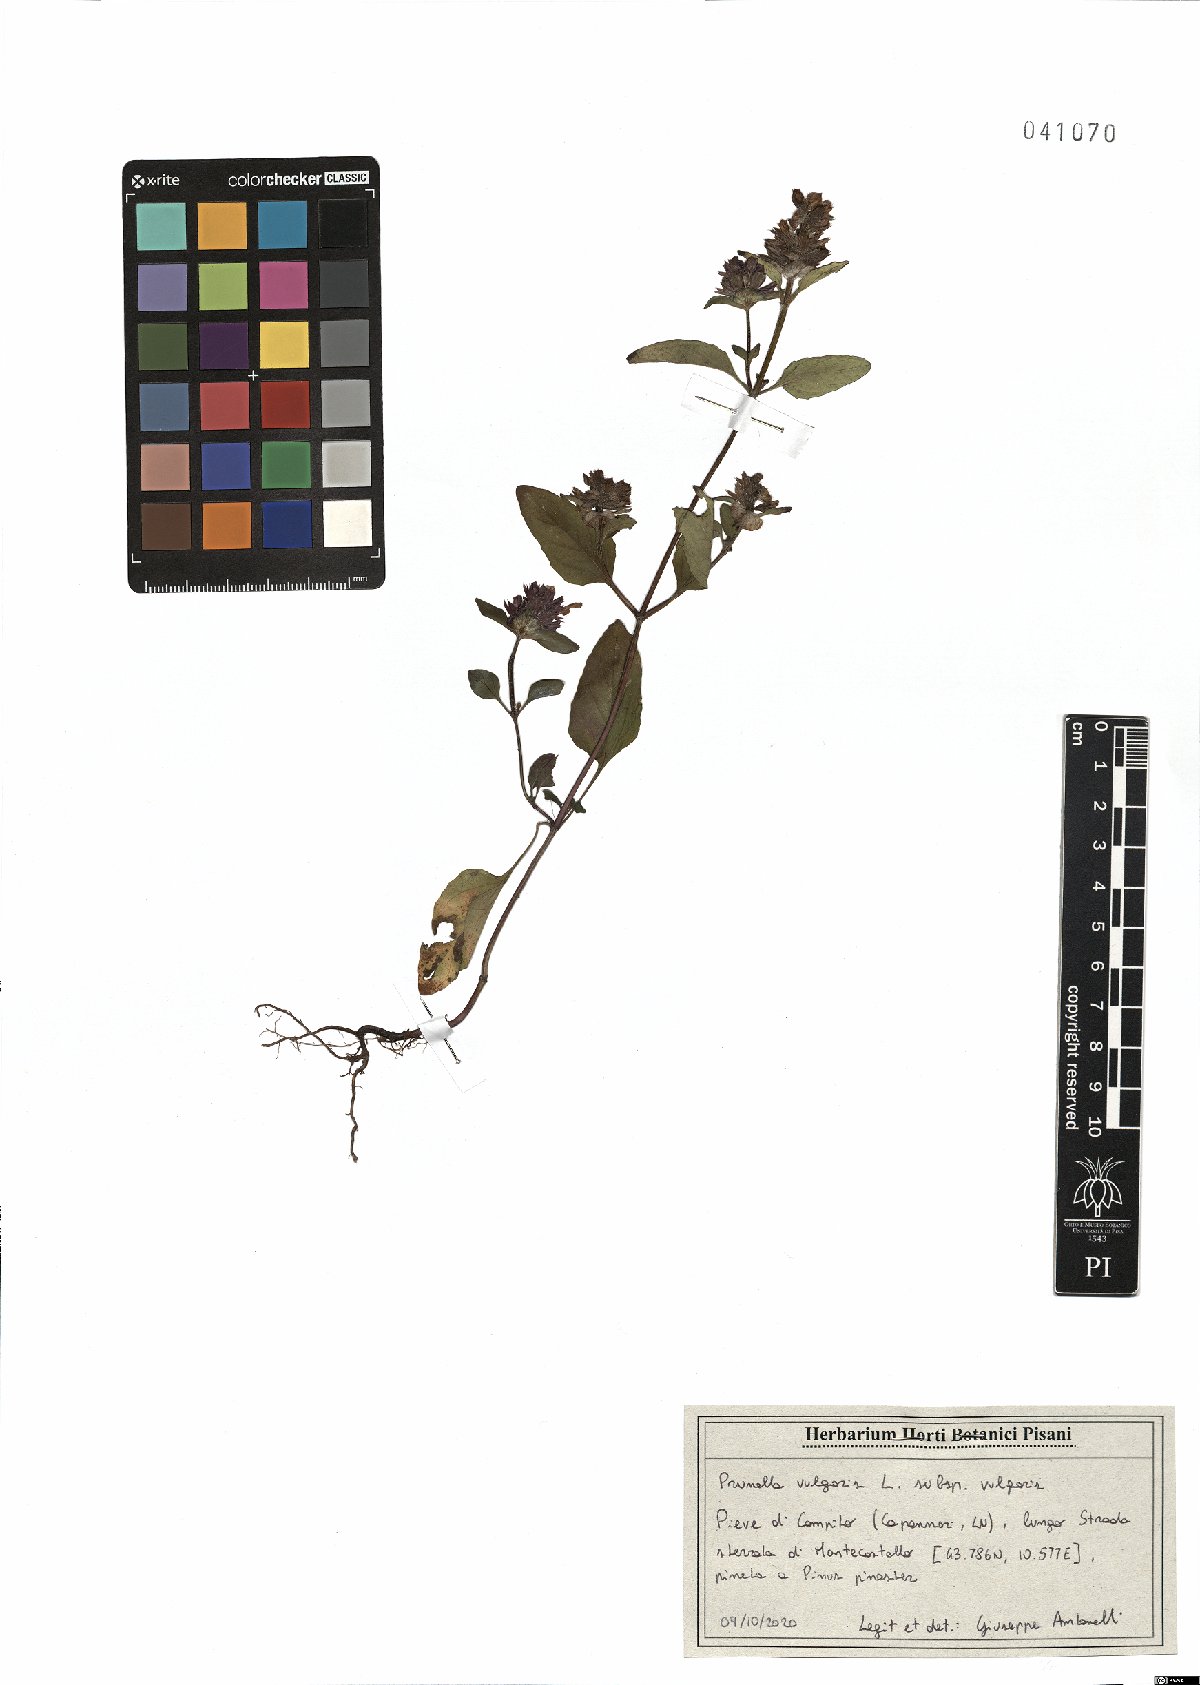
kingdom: Plantae
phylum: Tracheophyta
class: Magnoliopsida
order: Lamiales
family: Lamiaceae
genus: Prunella
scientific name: Prunella vulgaris
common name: Heal-all
